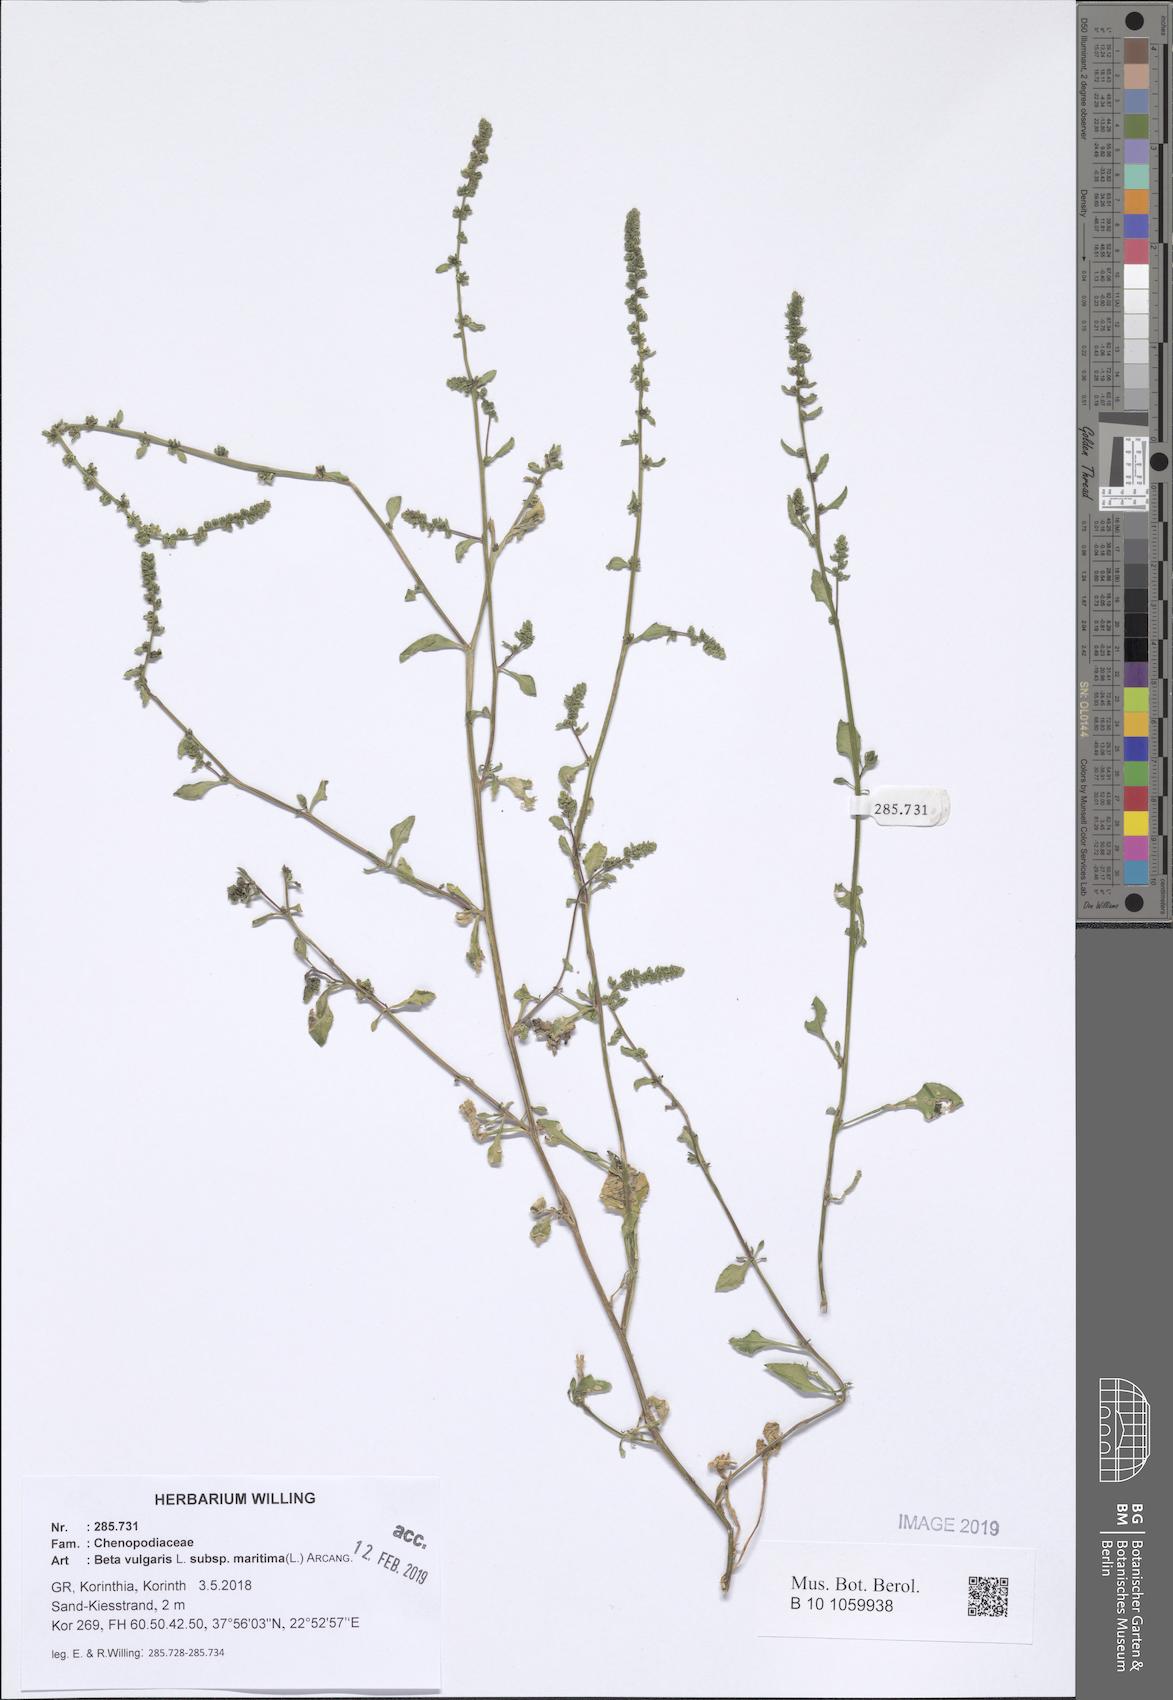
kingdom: Plantae
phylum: Tracheophyta
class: Magnoliopsida
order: Caryophyllales
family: Amaranthaceae
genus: Beta
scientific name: Beta maritima
